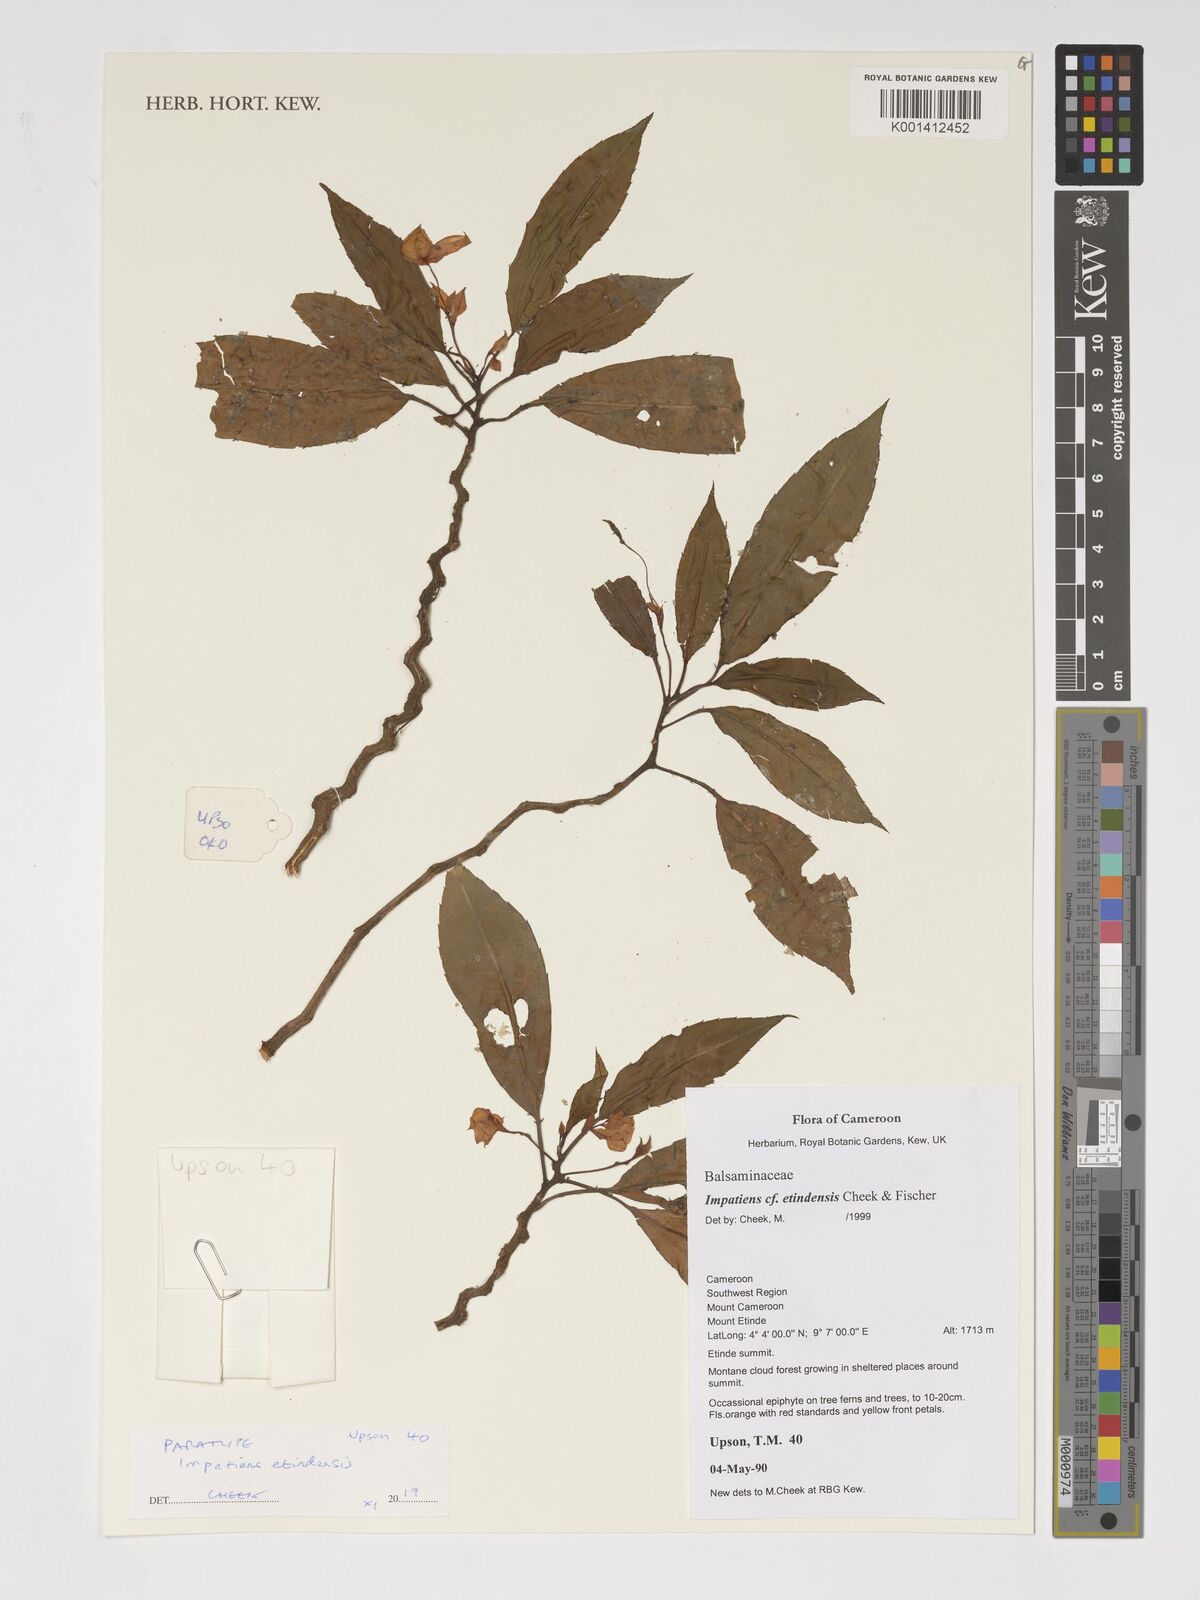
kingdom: Plantae
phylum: Tracheophyta
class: Magnoliopsida
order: Ericales
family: Balsaminaceae
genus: Impatiens
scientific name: Impatiens etindensis
